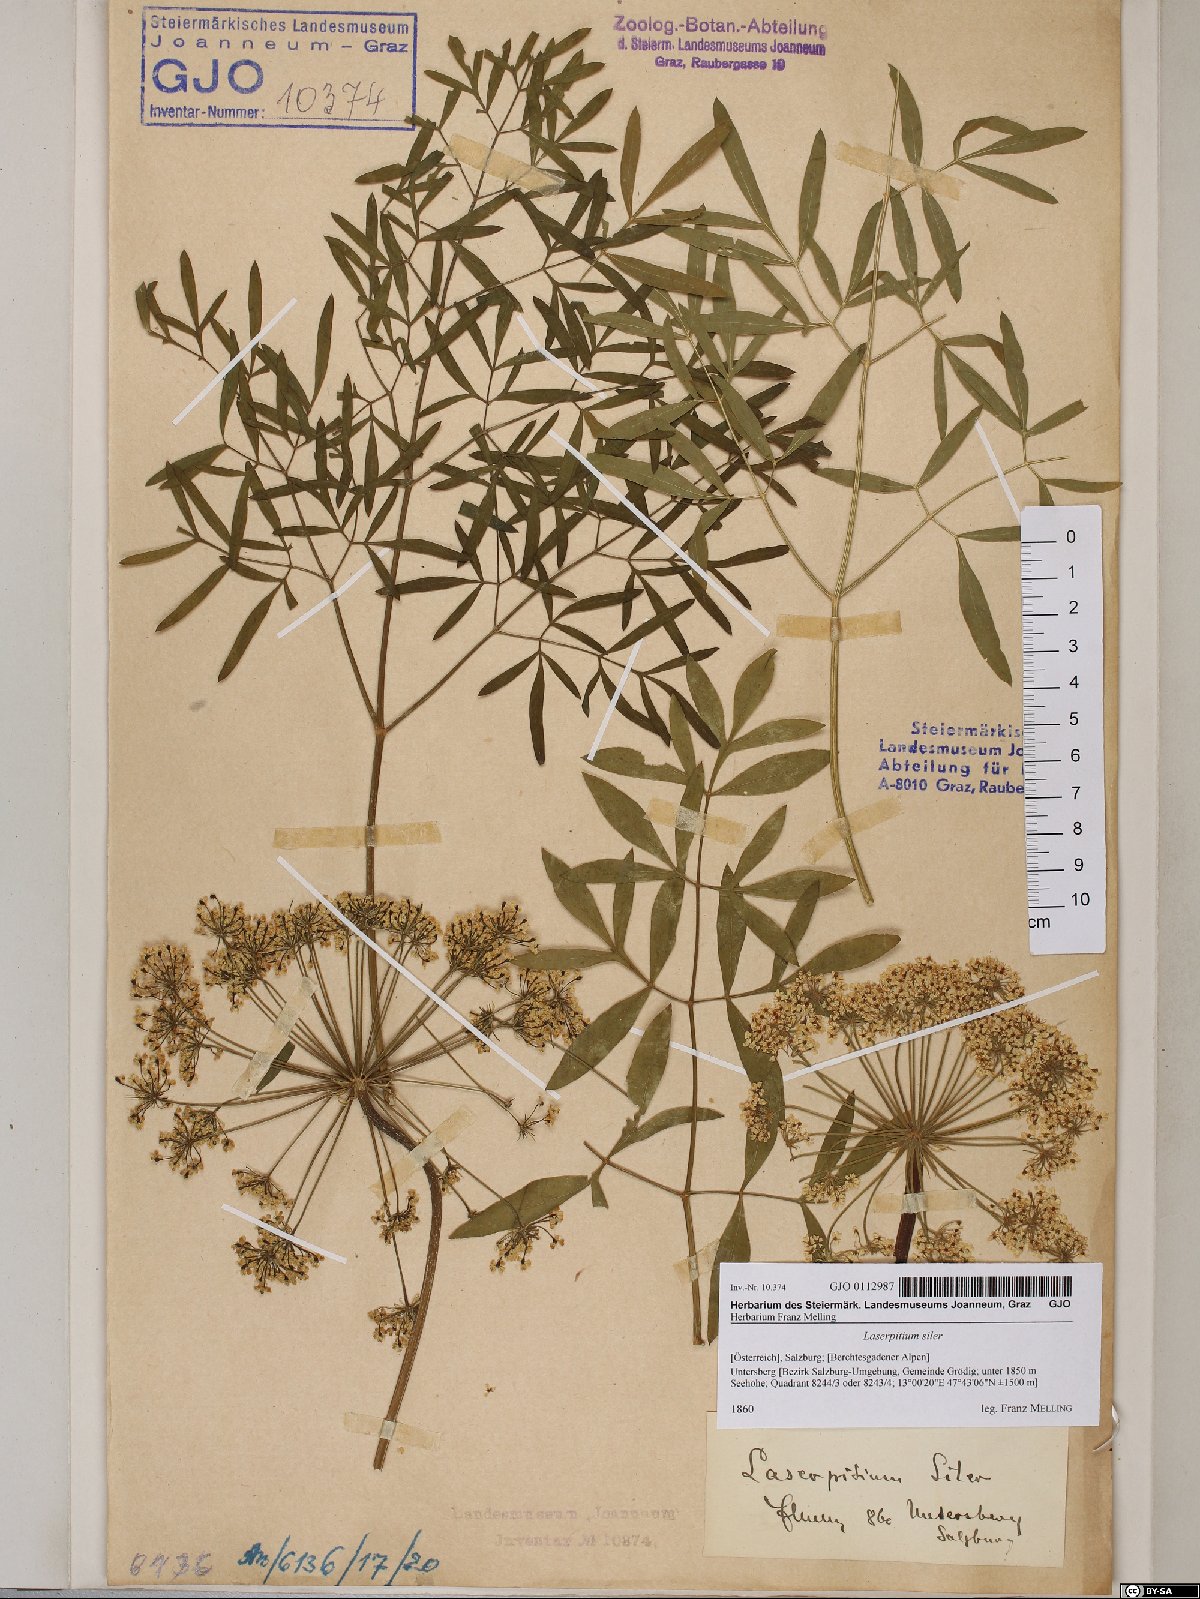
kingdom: Plantae
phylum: Tracheophyta
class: Magnoliopsida
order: Apiales
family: Apiaceae
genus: Siler
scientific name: Siler montanum
